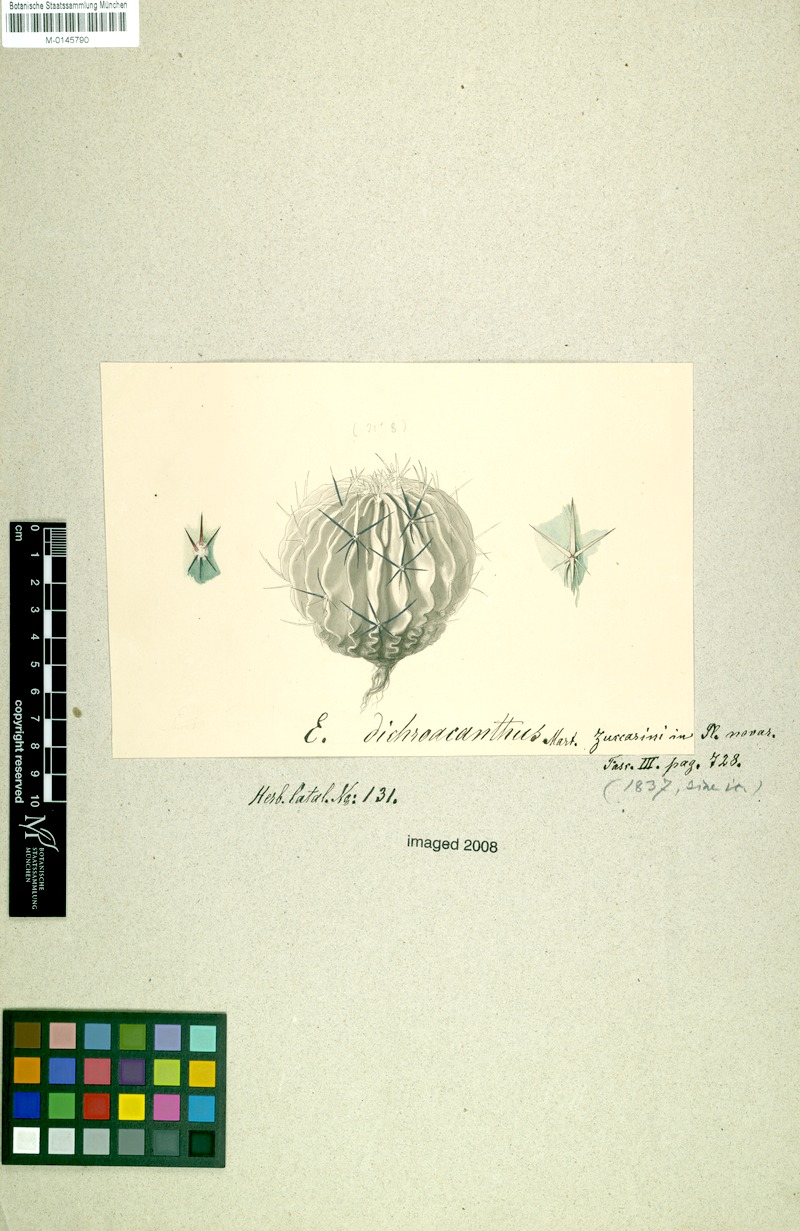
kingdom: Plantae
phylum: Tracheophyta
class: Magnoliopsida
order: Caryophyllales
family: Cactaceae
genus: Stenocactus
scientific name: Stenocactus crispatus
